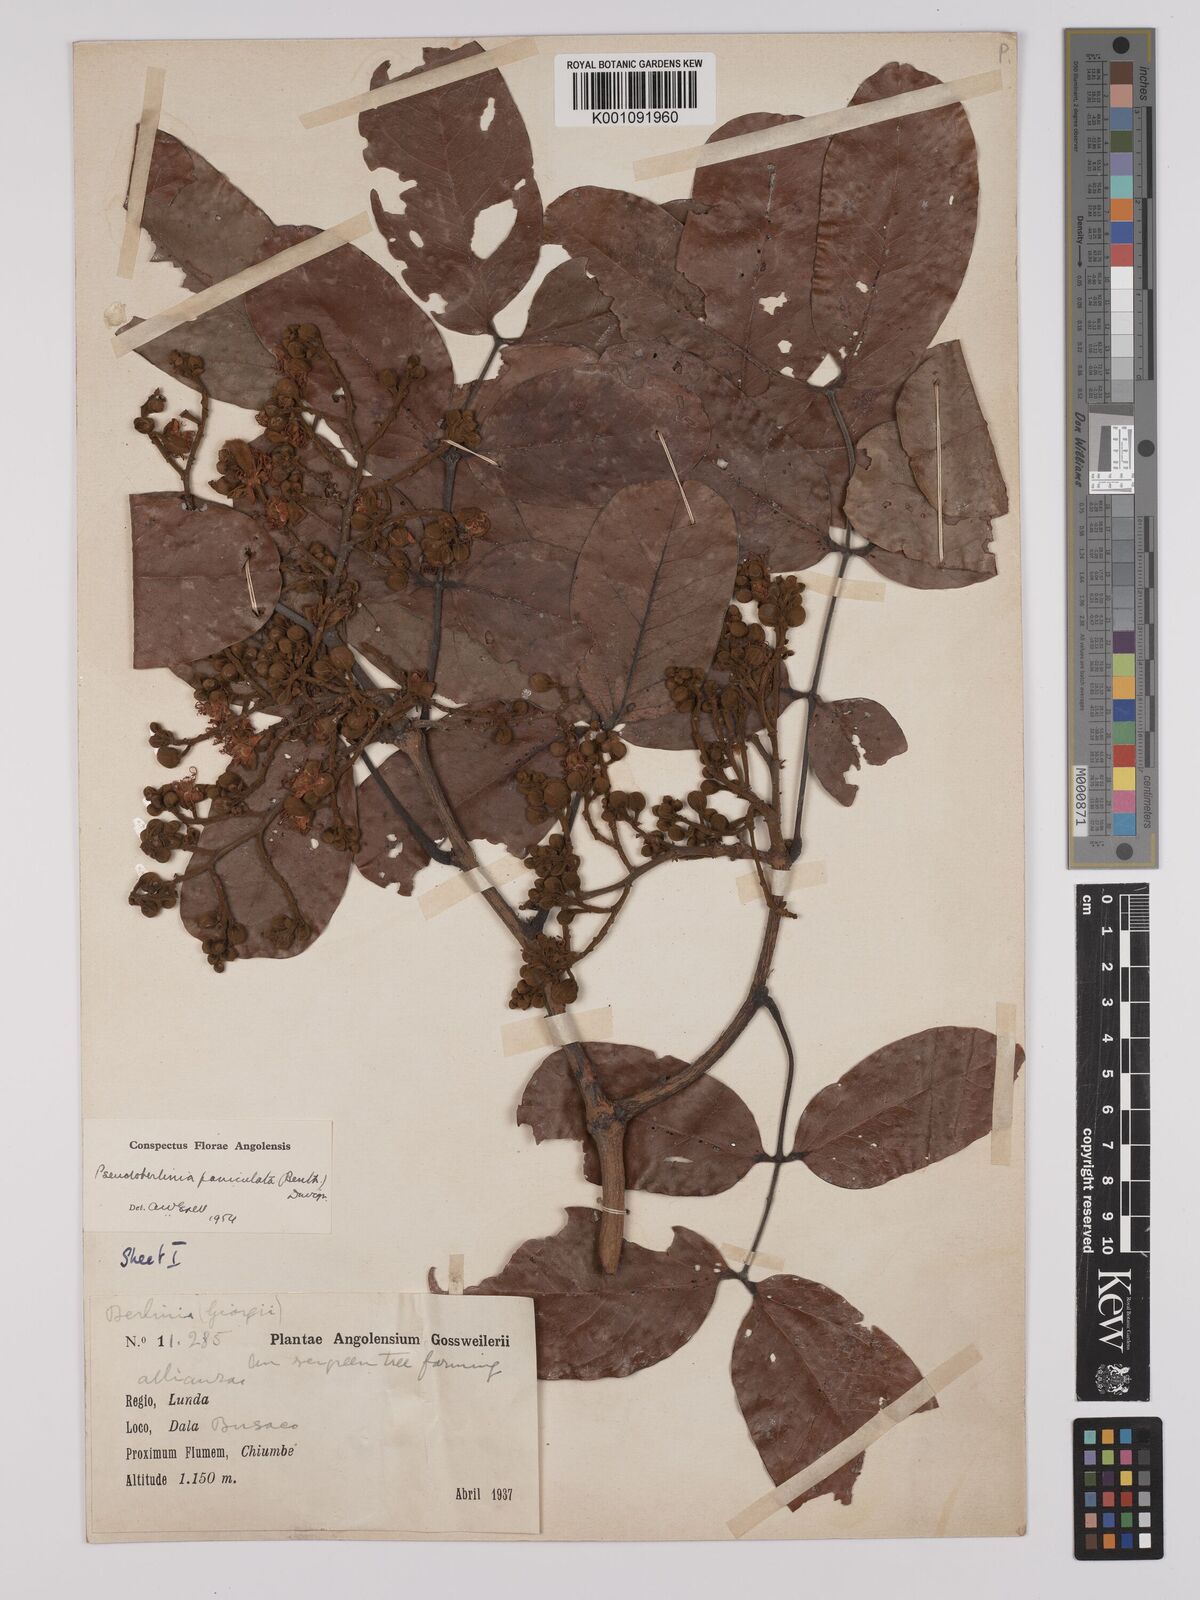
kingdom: Plantae
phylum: Tracheophyta
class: Magnoliopsida
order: Fabales
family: Fabaceae
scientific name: Fabaceae
